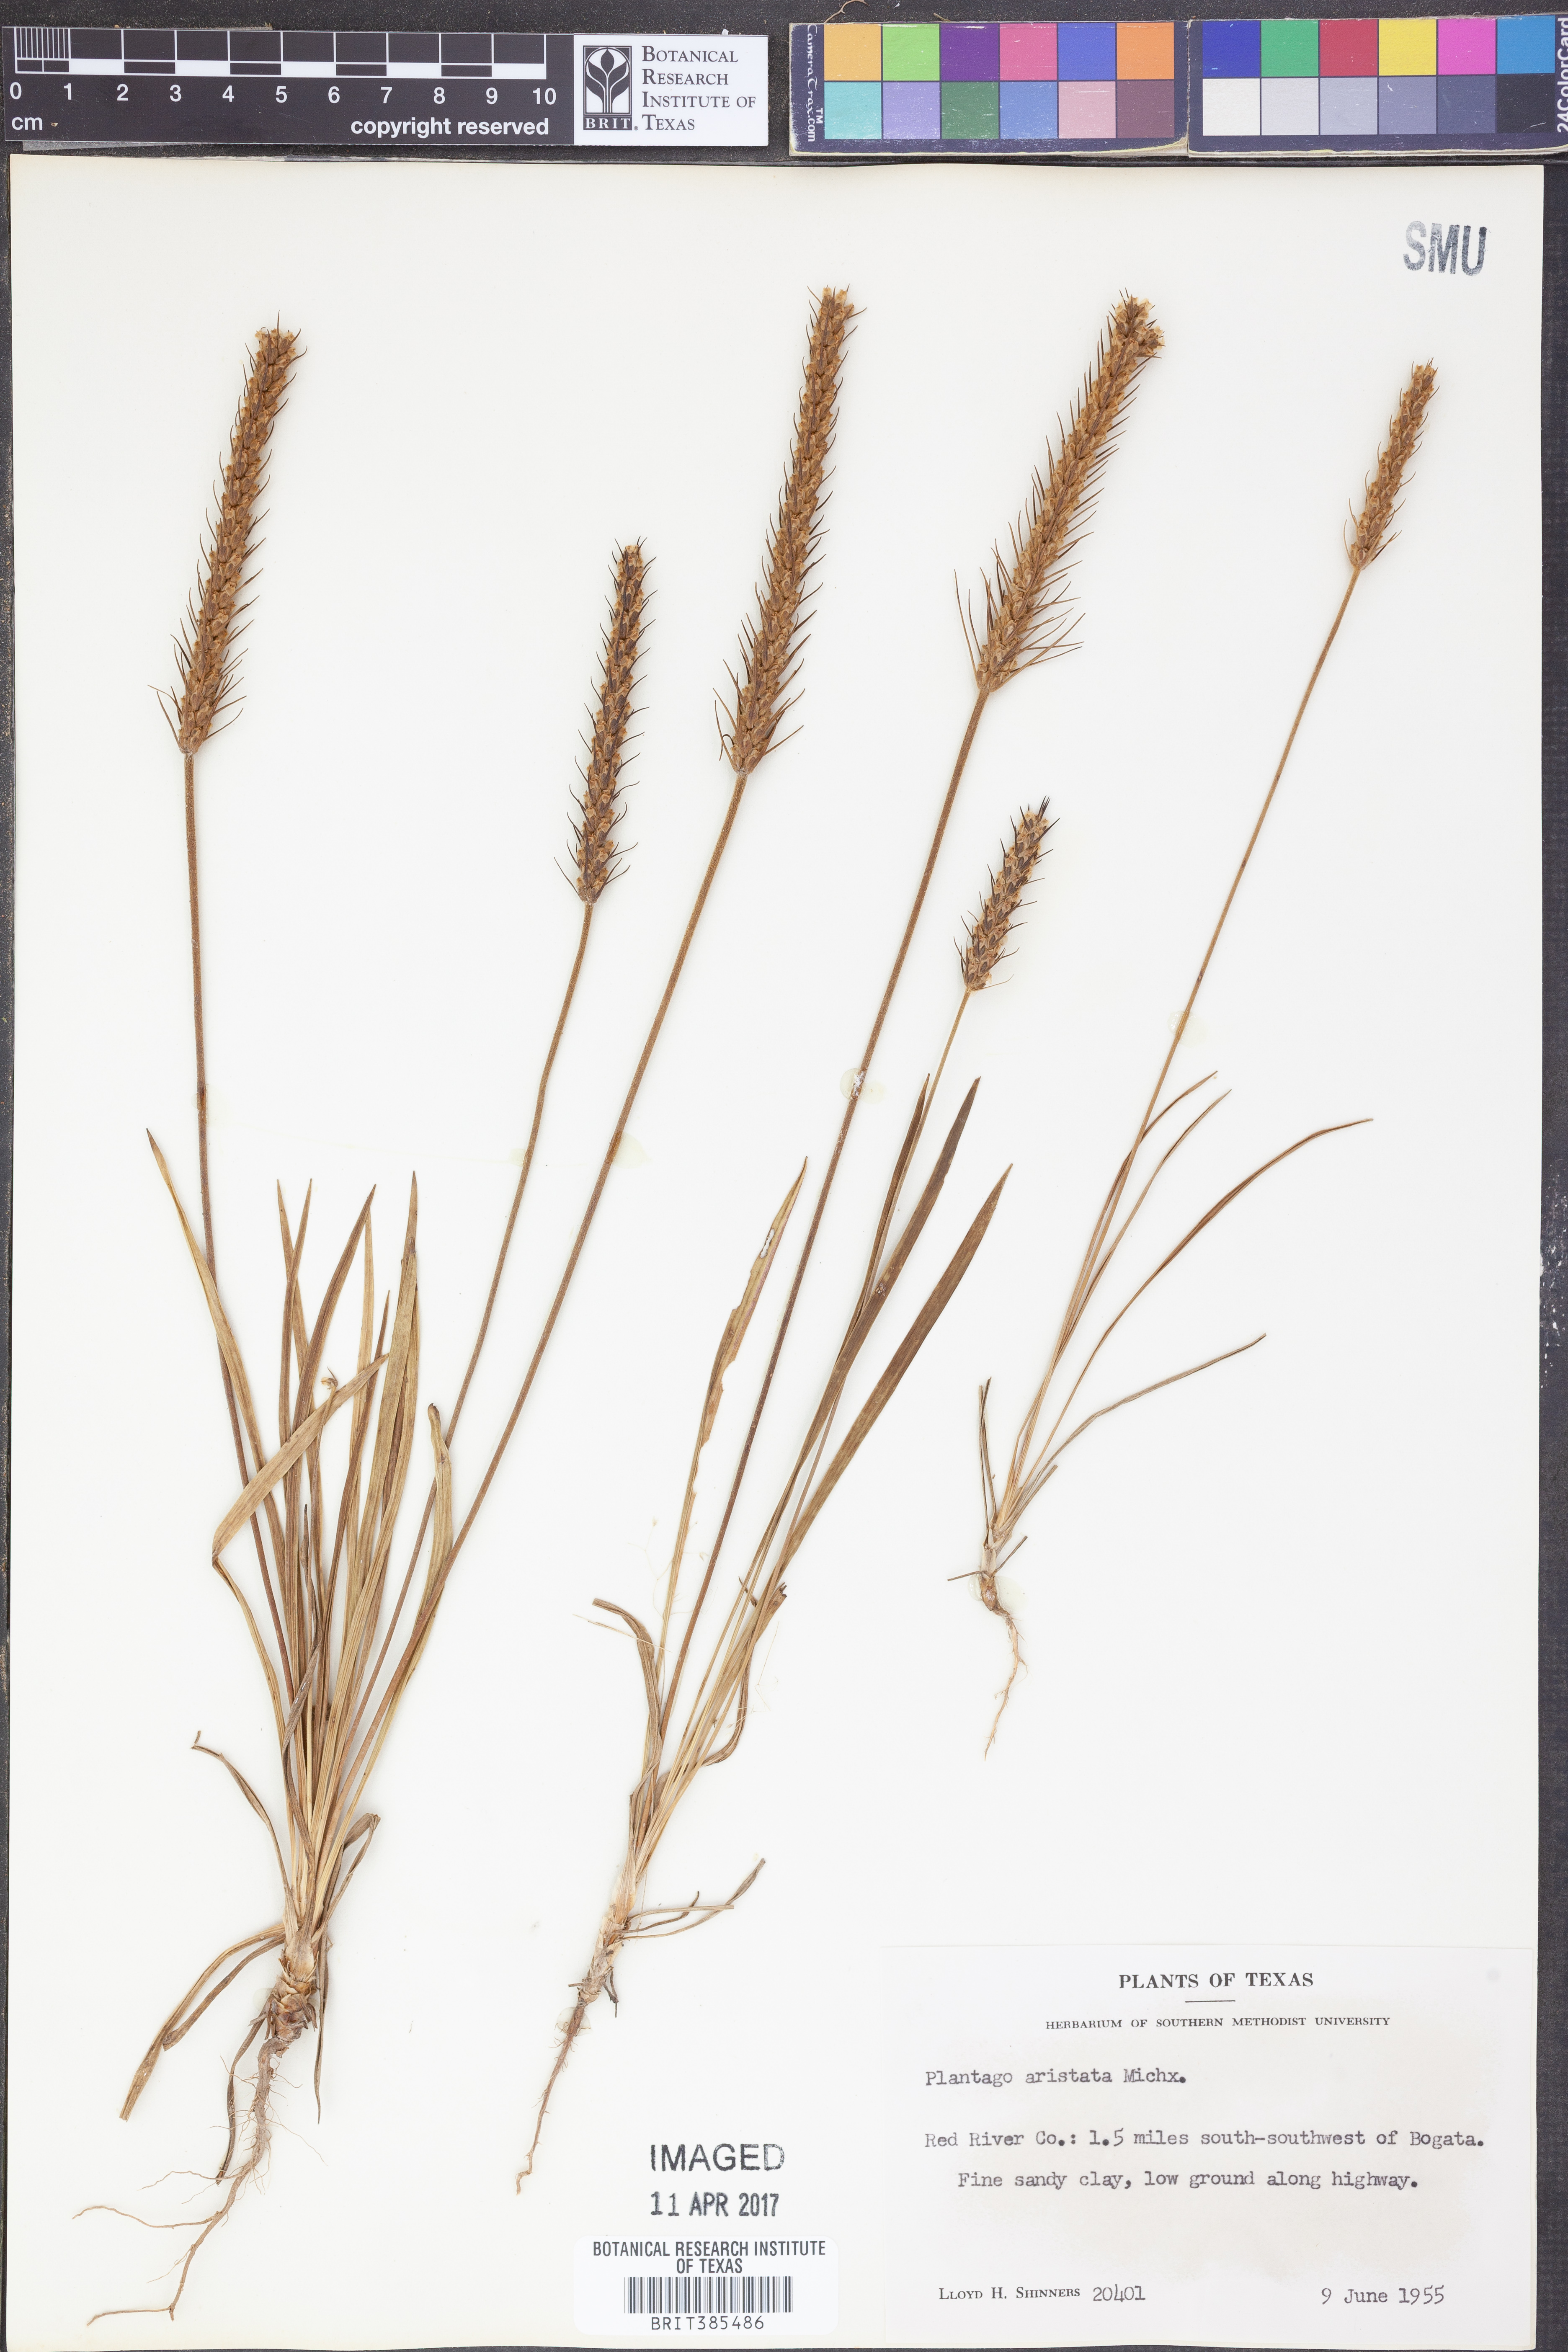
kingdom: Plantae
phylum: Tracheophyta
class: Magnoliopsida
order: Lamiales
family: Plantaginaceae
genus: Plantago
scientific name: Plantago aristata
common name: Bracted plantain
